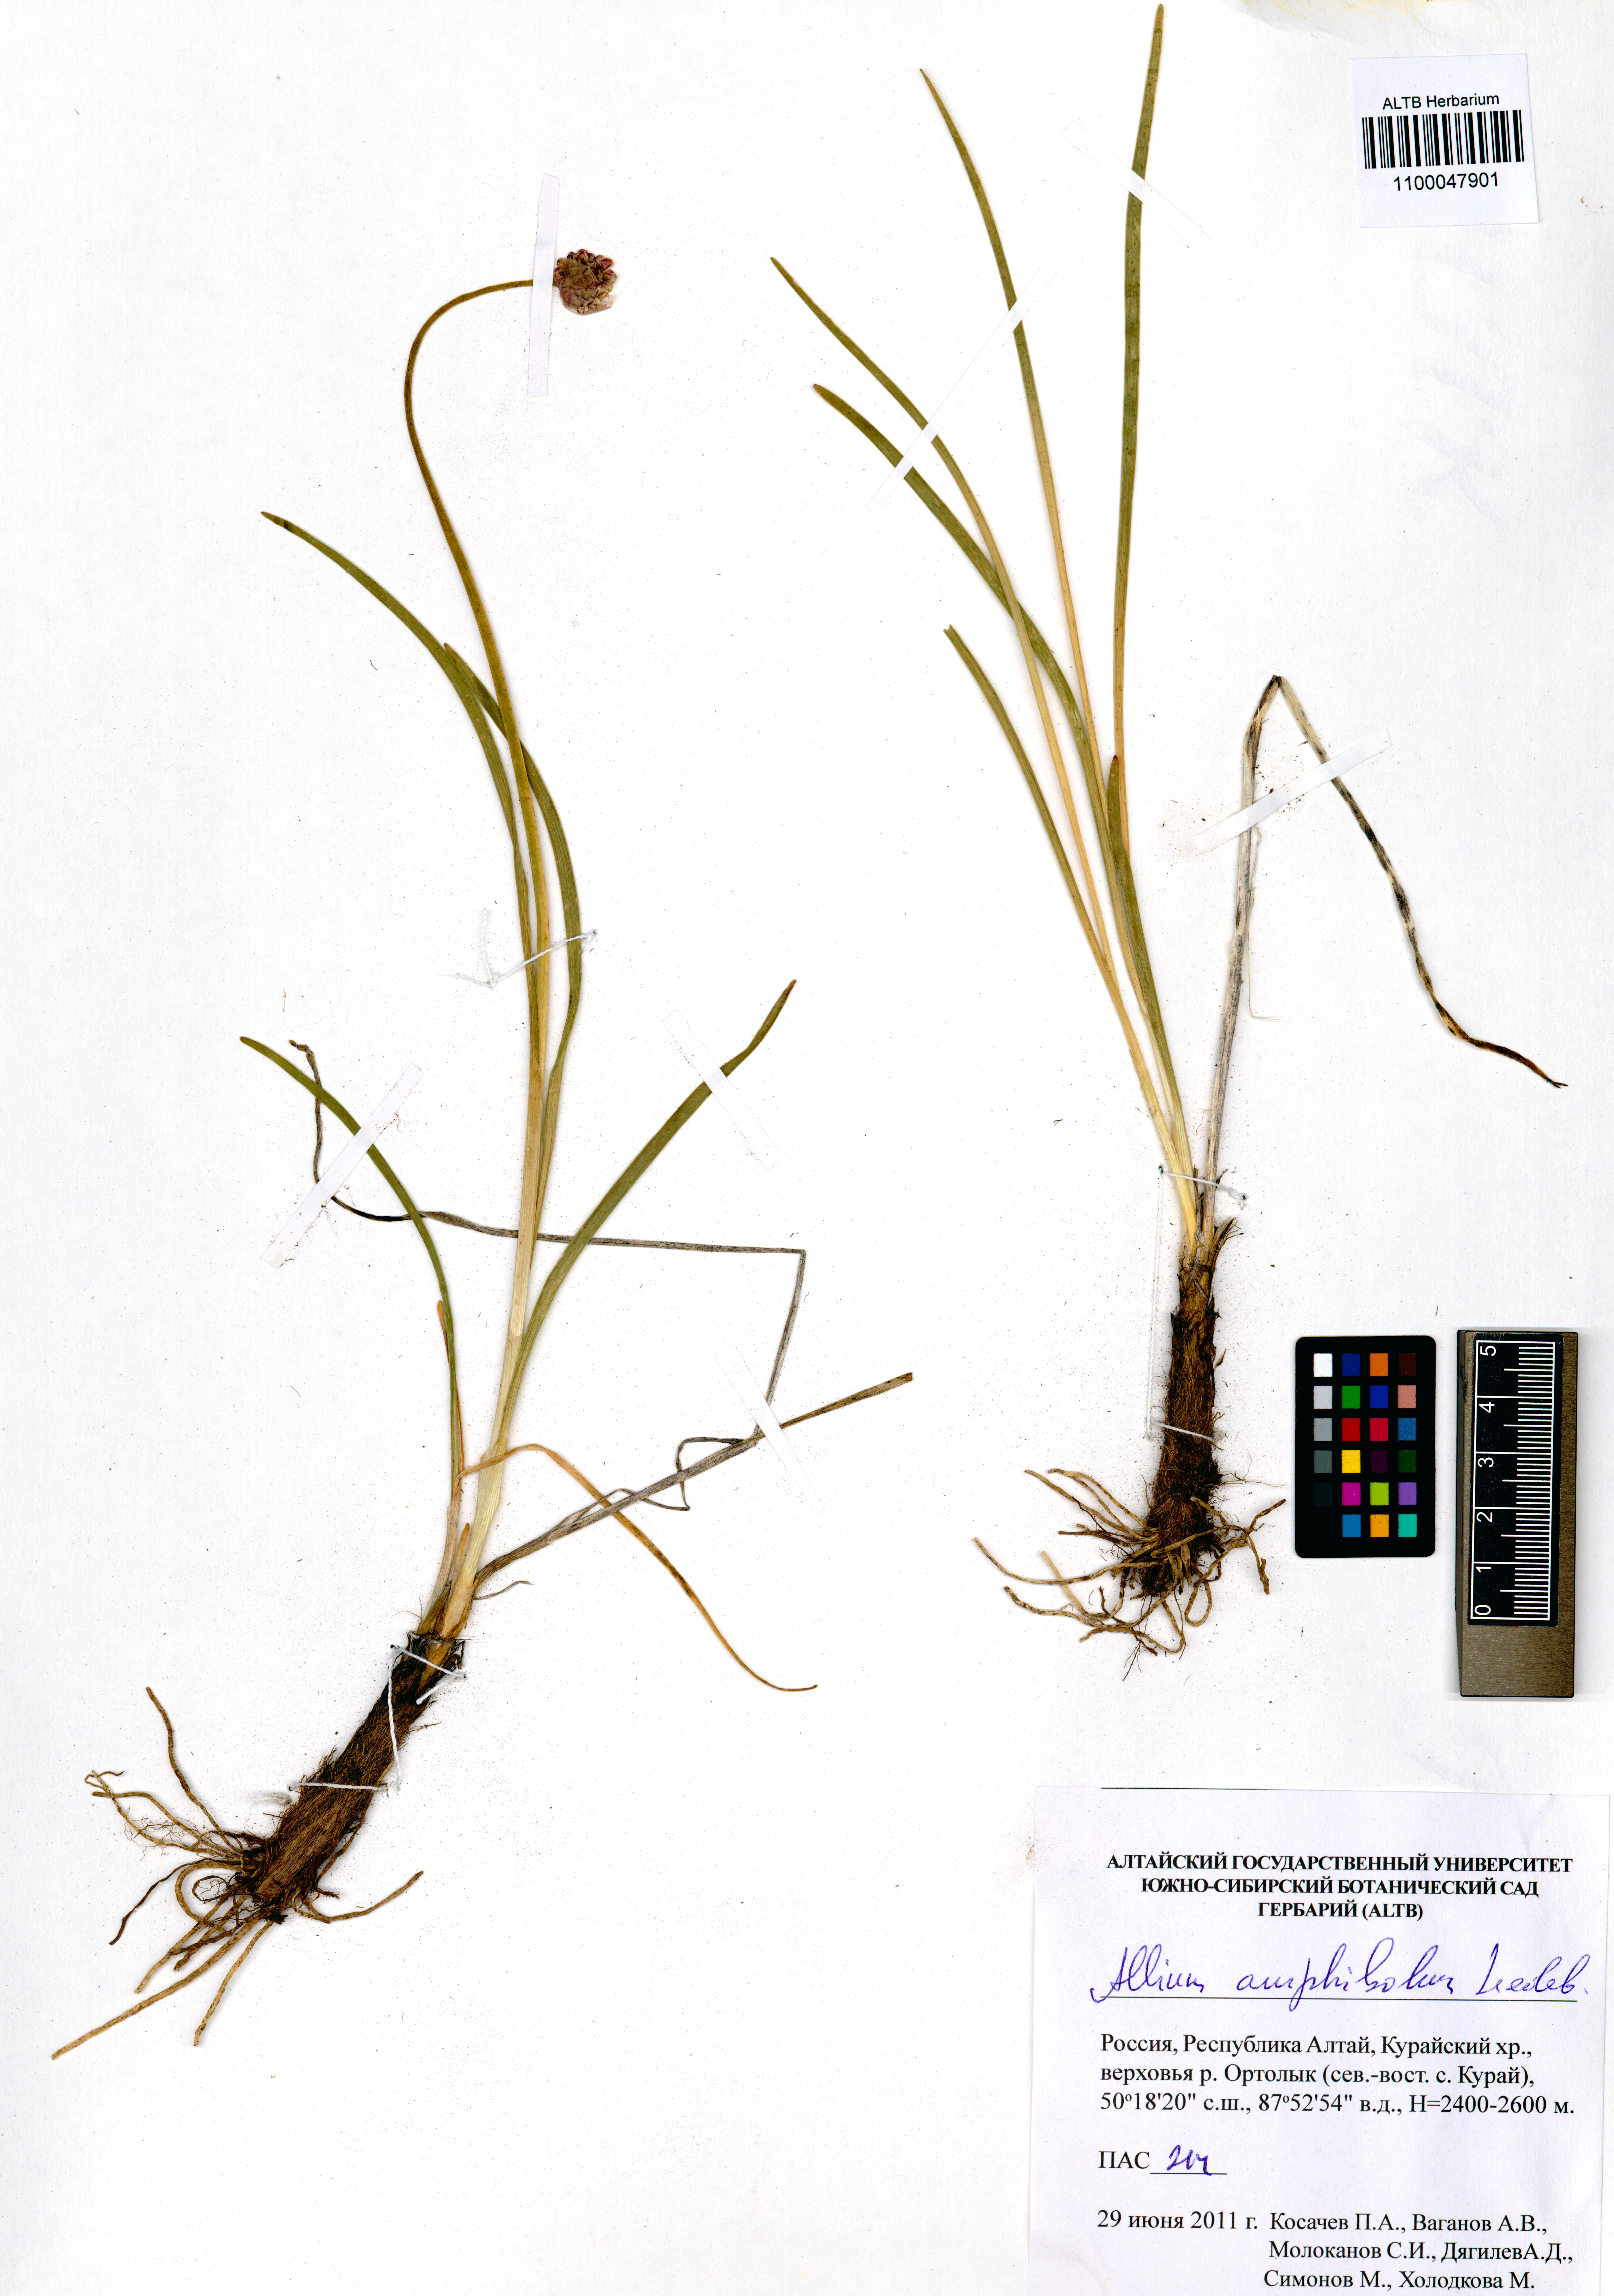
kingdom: Plantae
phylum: Tracheophyta
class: Liliopsida
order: Asparagales
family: Amaryllidaceae
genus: Allium
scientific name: Allium amphibolum
